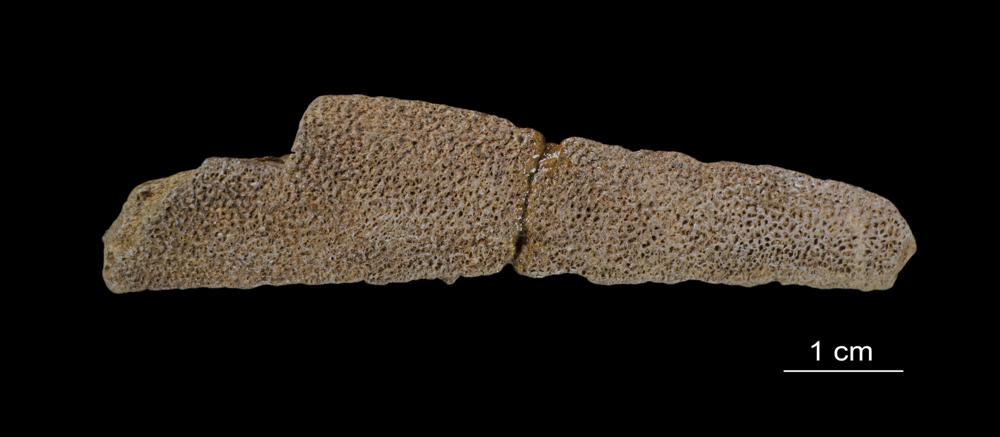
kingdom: Animalia
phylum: Chordata
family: Asterolepididae
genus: Asterolepis
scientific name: Asterolepis ornata
